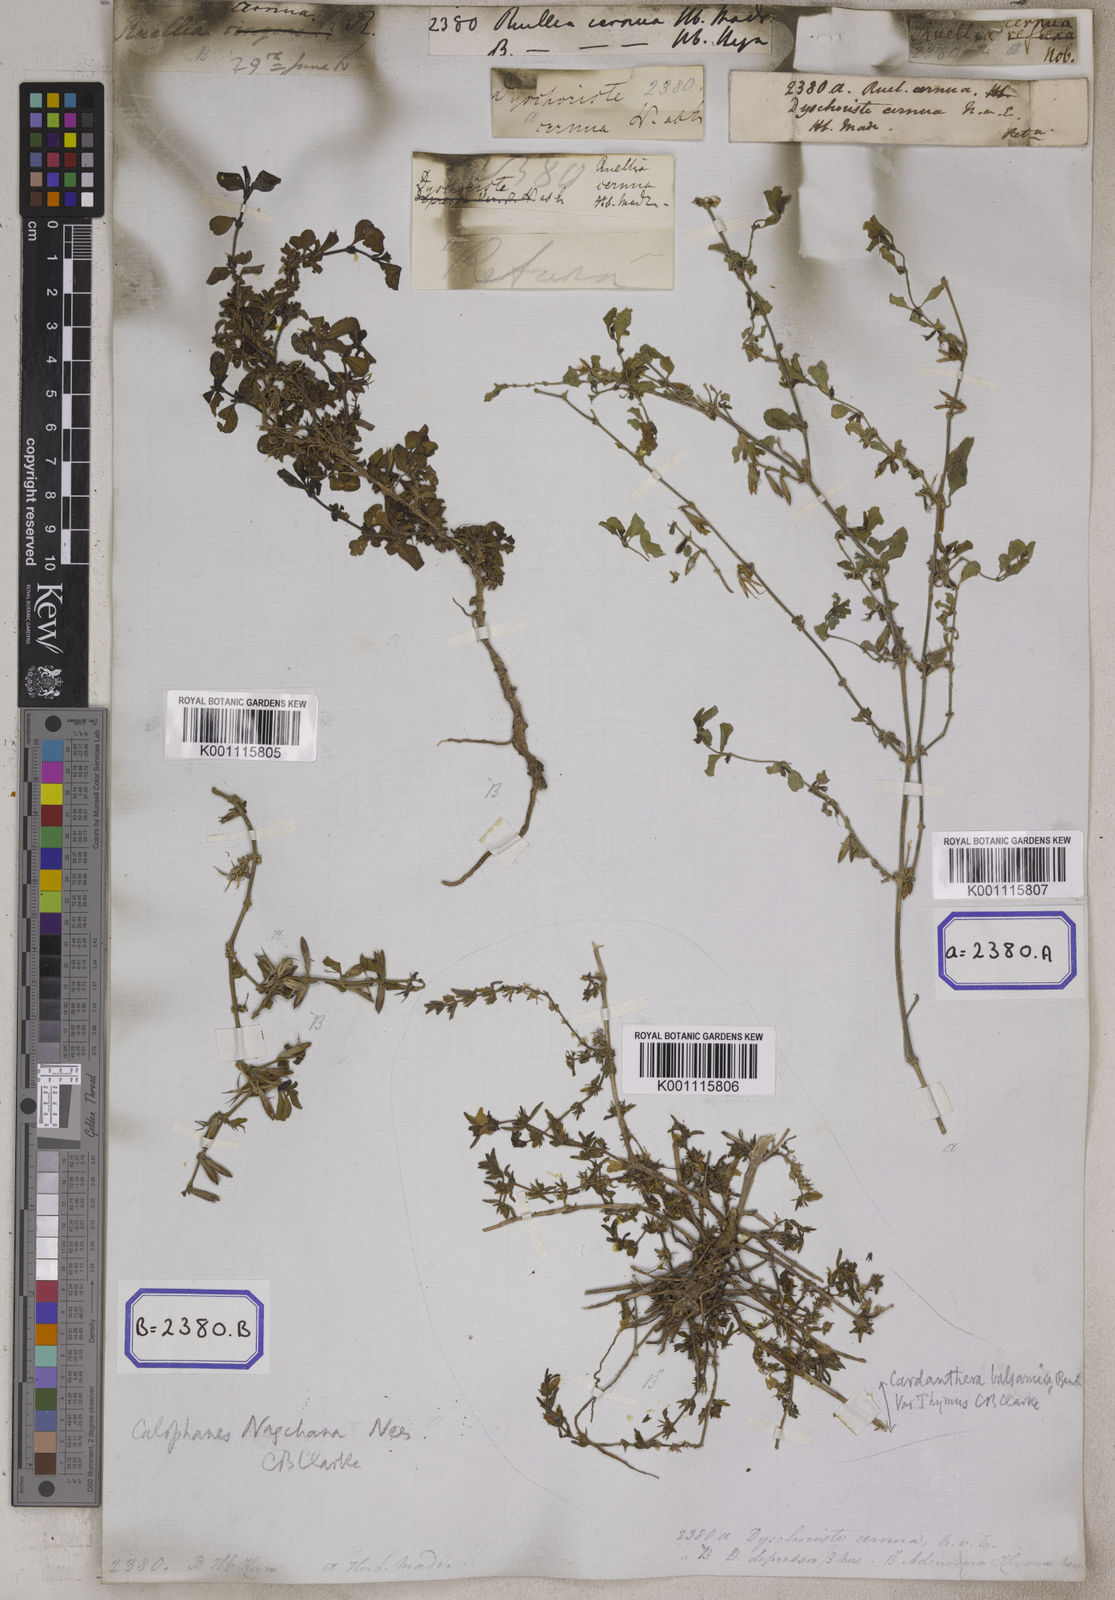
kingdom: Plantae
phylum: Tracheophyta
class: Magnoliopsida
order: Lamiales
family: Acanthaceae
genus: Ruellia
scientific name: Ruellia
